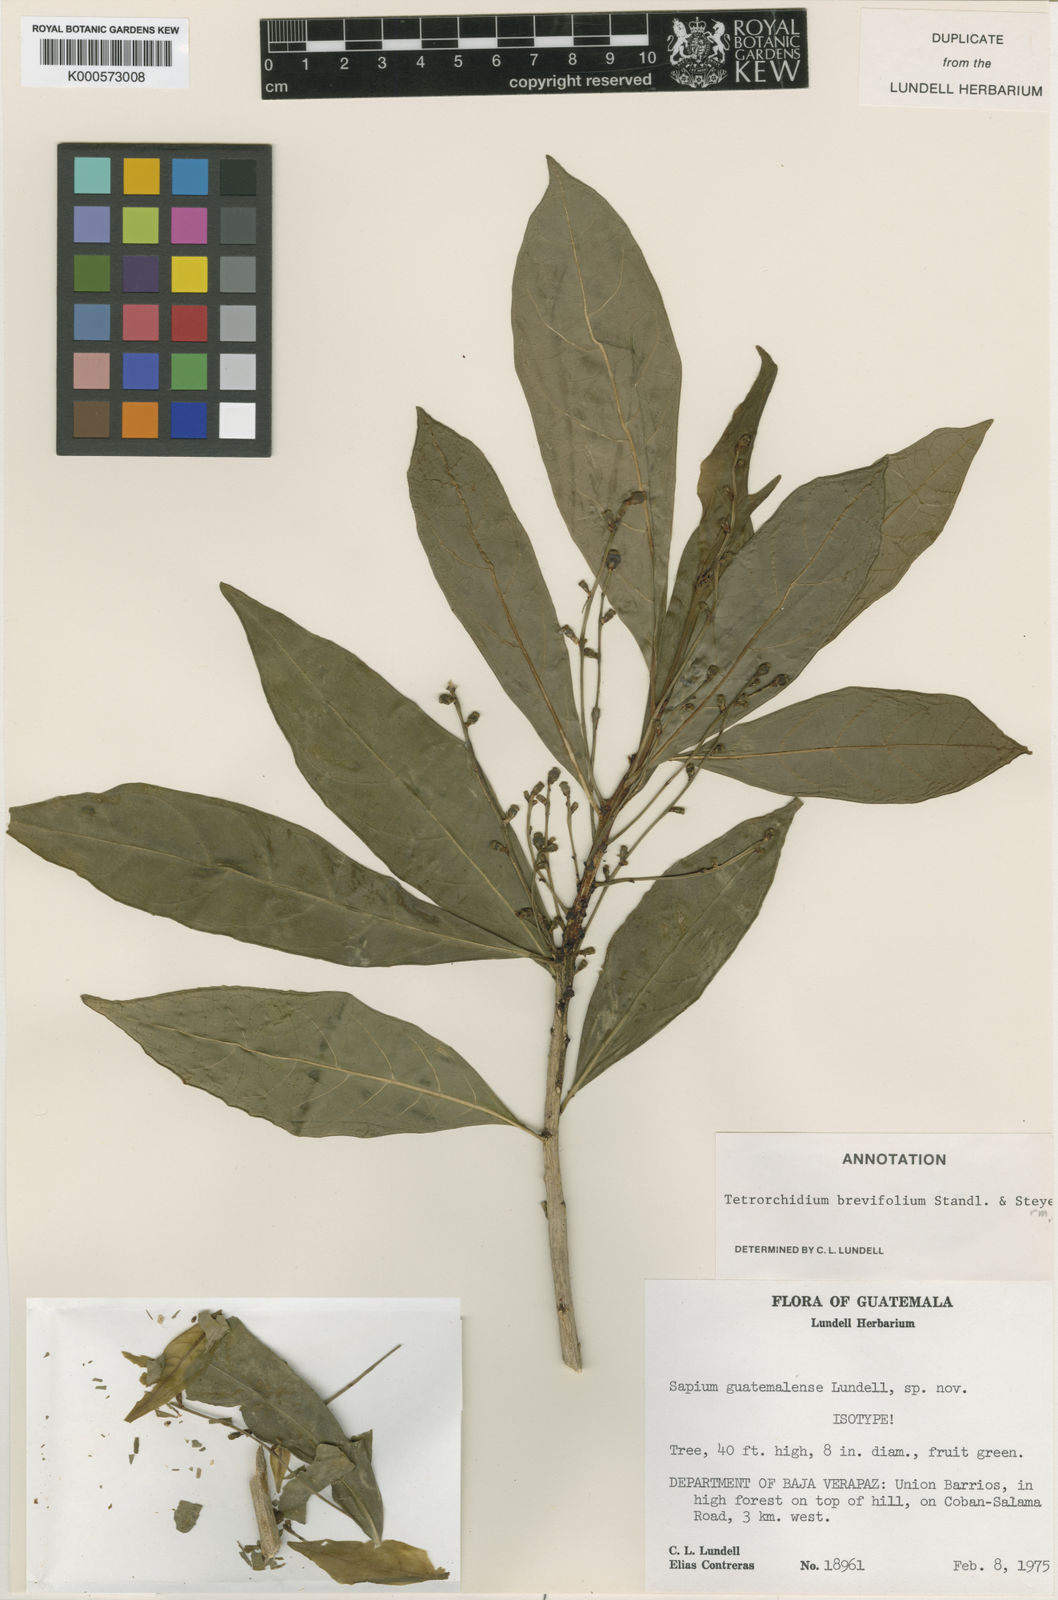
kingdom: Plantae
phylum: Tracheophyta
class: Magnoliopsida
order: Malpighiales
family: Euphorbiaceae
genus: Tetrorchidium
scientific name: Tetrorchidium brevifolium
